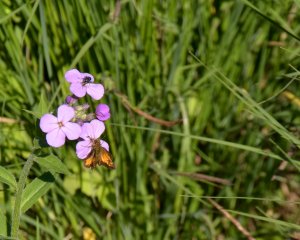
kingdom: Animalia
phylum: Arthropoda
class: Insecta
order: Lepidoptera
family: Hesperiidae
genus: Lon
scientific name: Lon hobomok
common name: Hobomok Skipper
